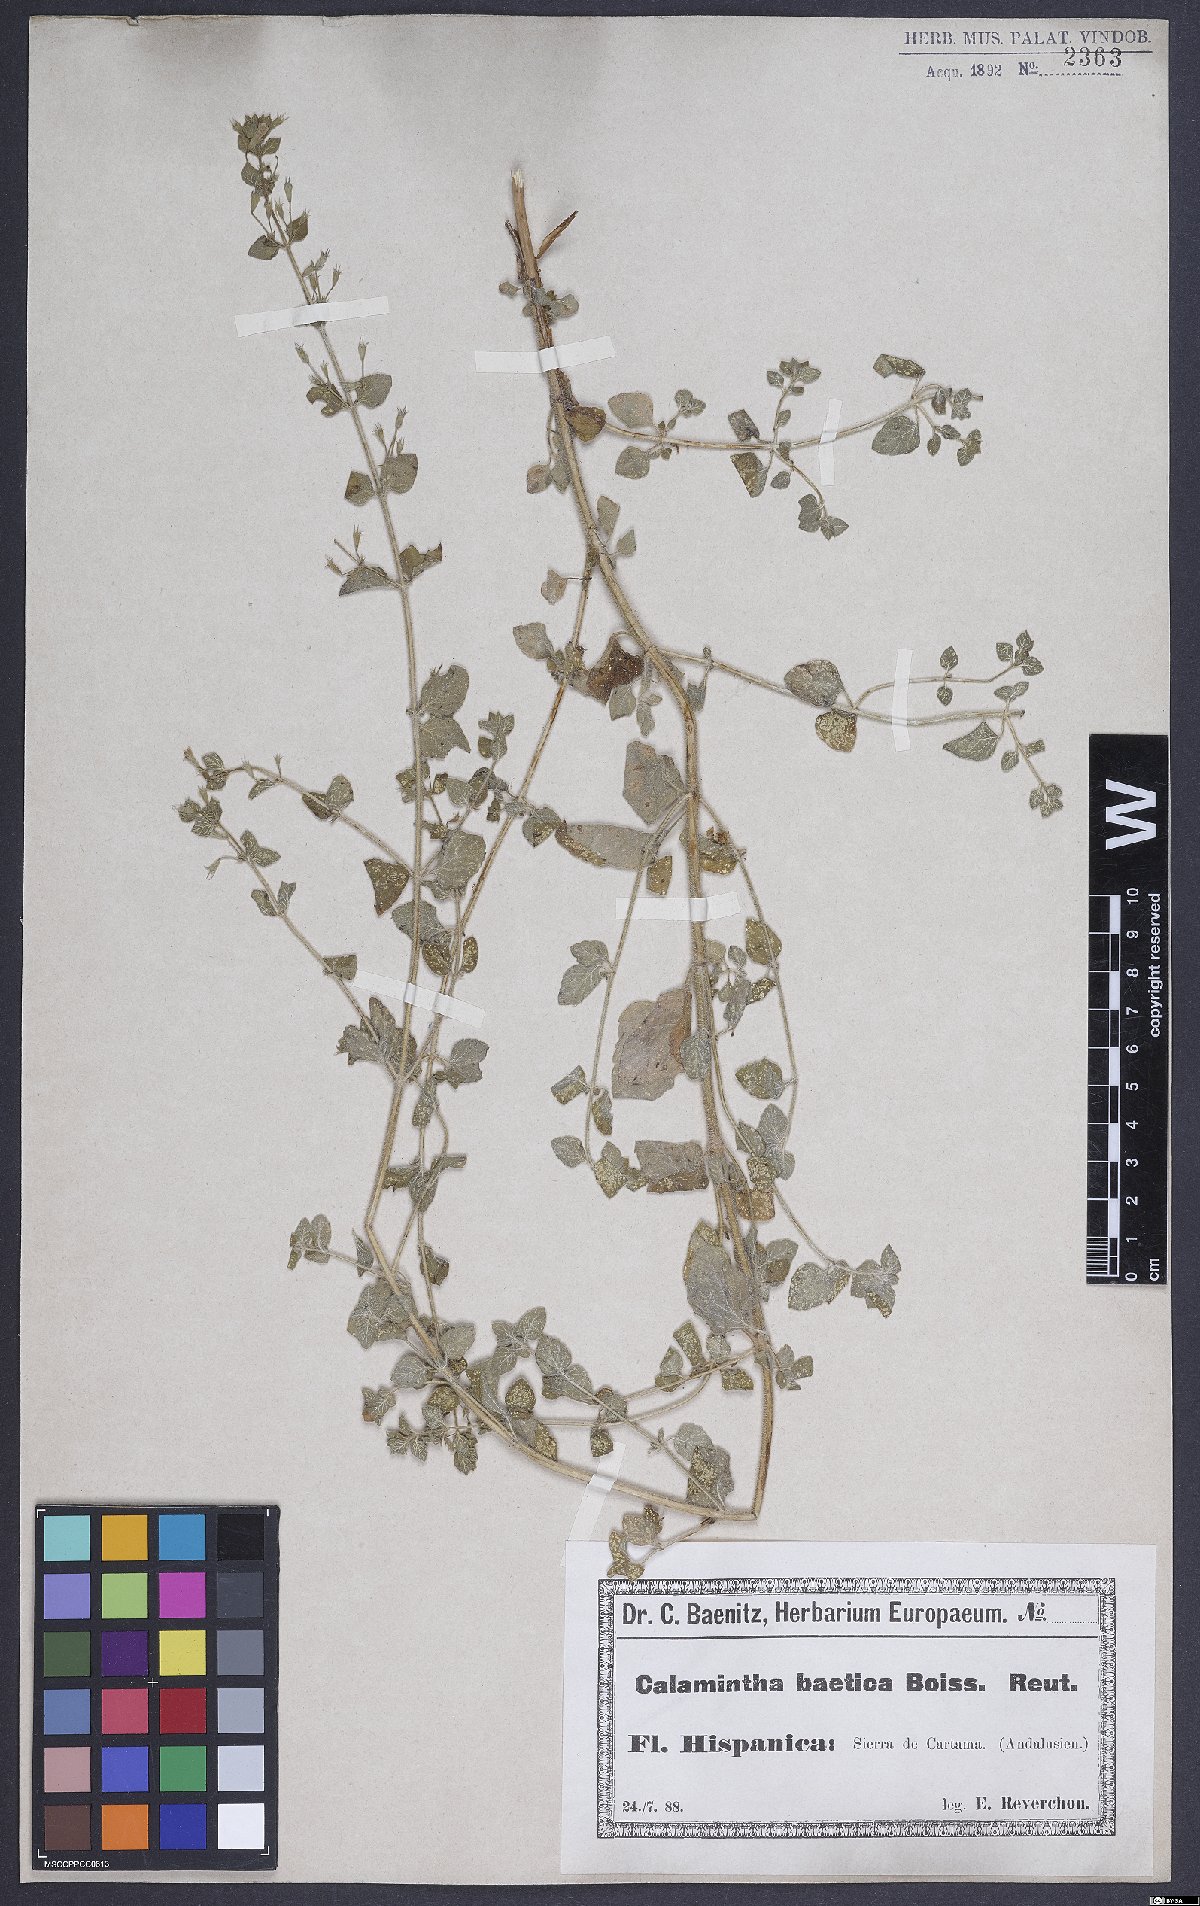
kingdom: Plantae
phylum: Tracheophyta
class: Magnoliopsida
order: Lamiales
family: Lamiaceae
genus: Calamintha
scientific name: Calamintha
